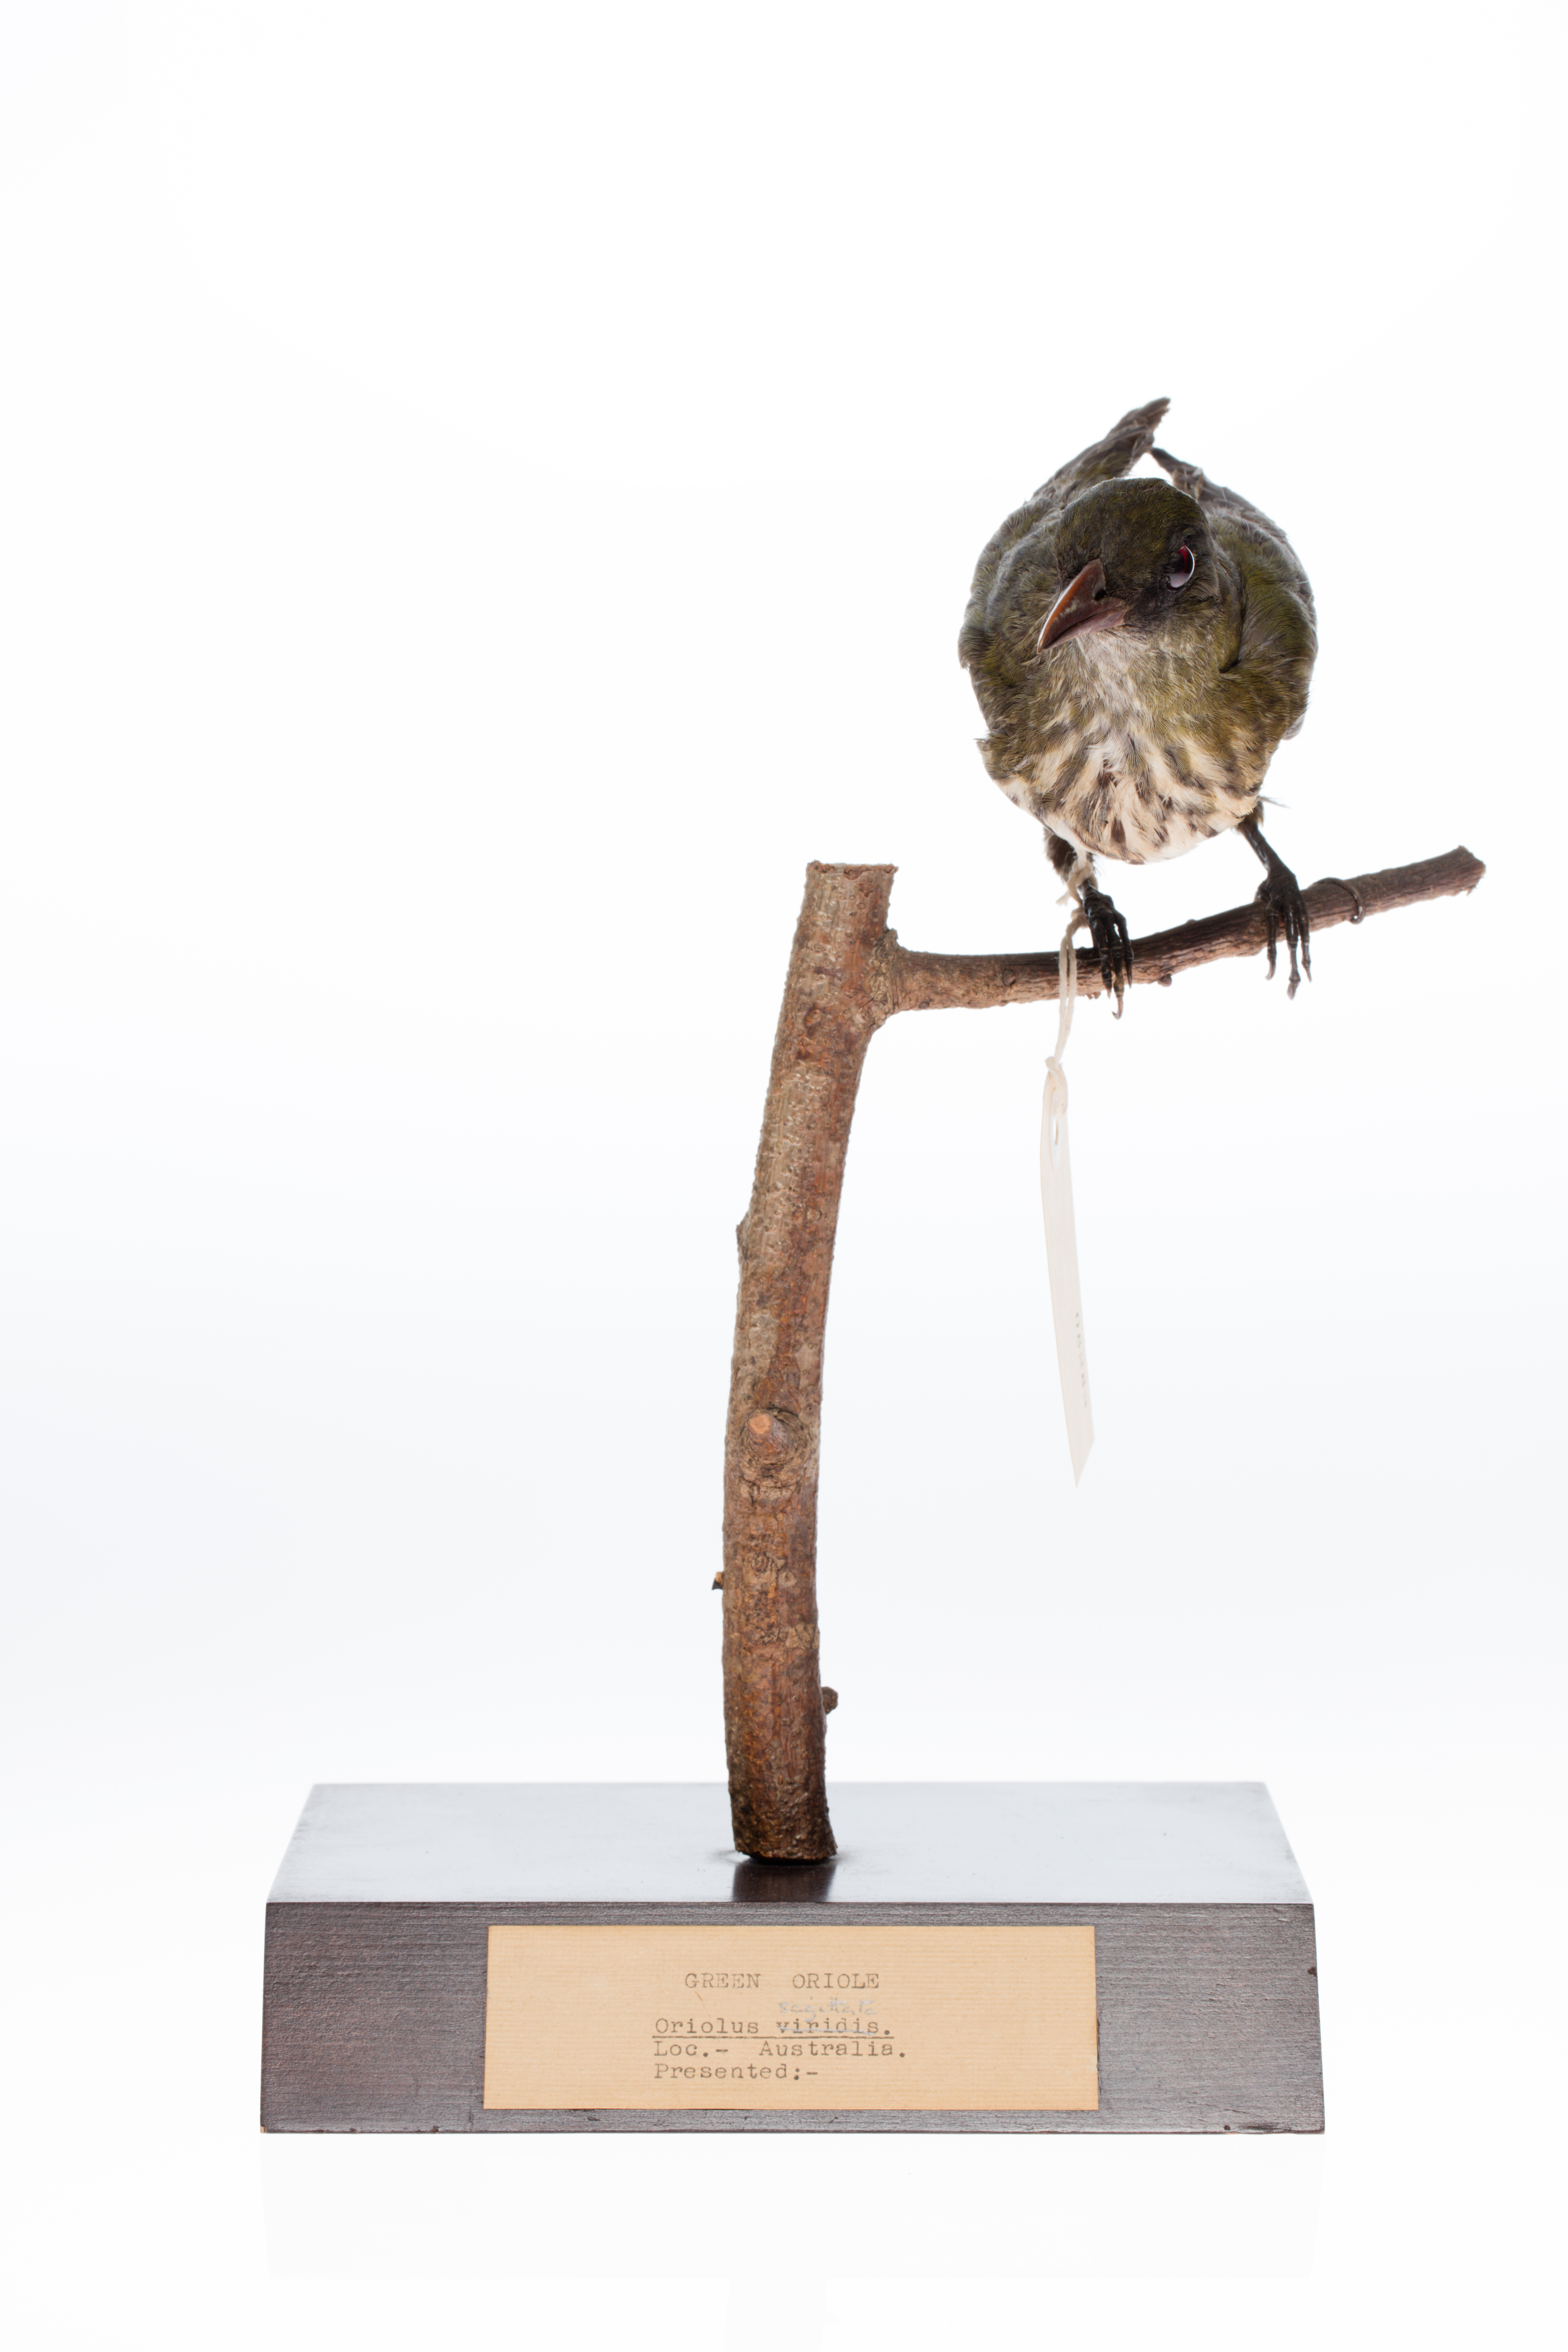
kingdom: Animalia
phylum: Chordata
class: Aves
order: Passeriformes
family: Oriolidae
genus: Oriolus
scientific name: Oriolus sagittatus
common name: Olive-backed oriole
